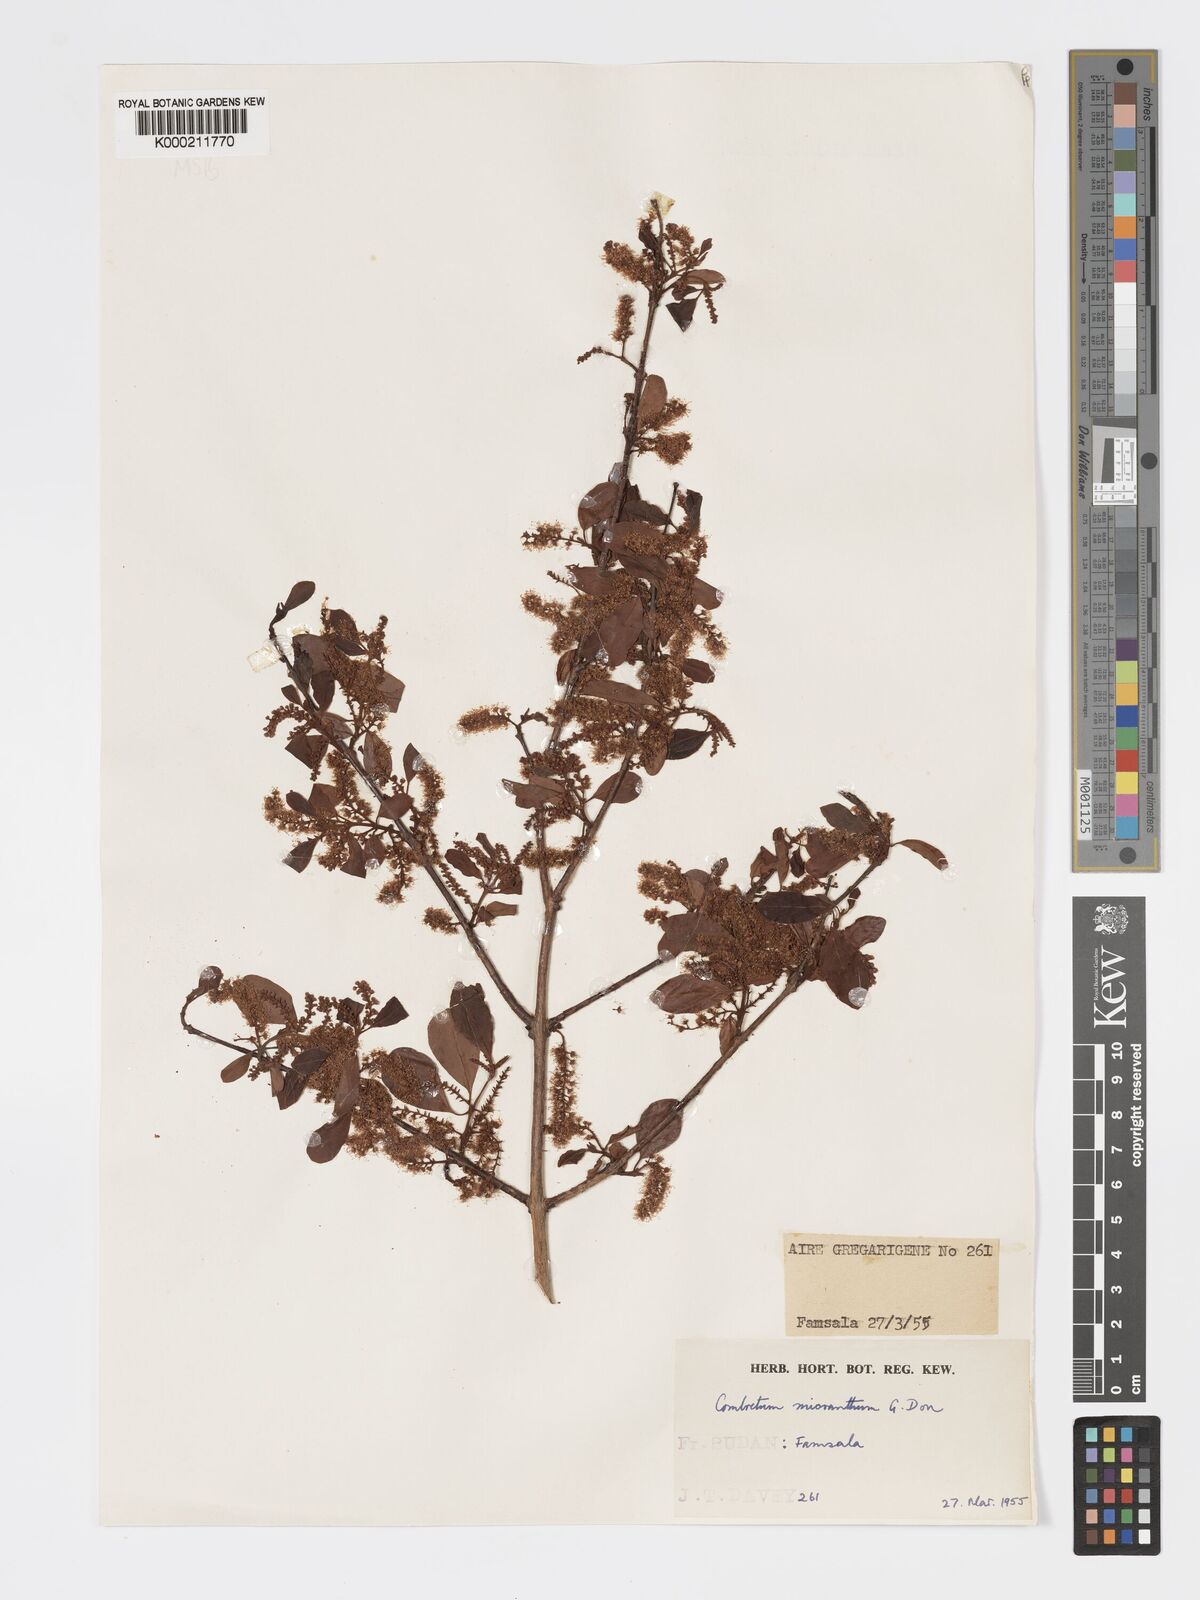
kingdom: Plantae
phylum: Tracheophyta
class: Magnoliopsida
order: Myrtales
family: Combretaceae
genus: Combretum
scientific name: Combretum micranthum
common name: Opium-antidote
